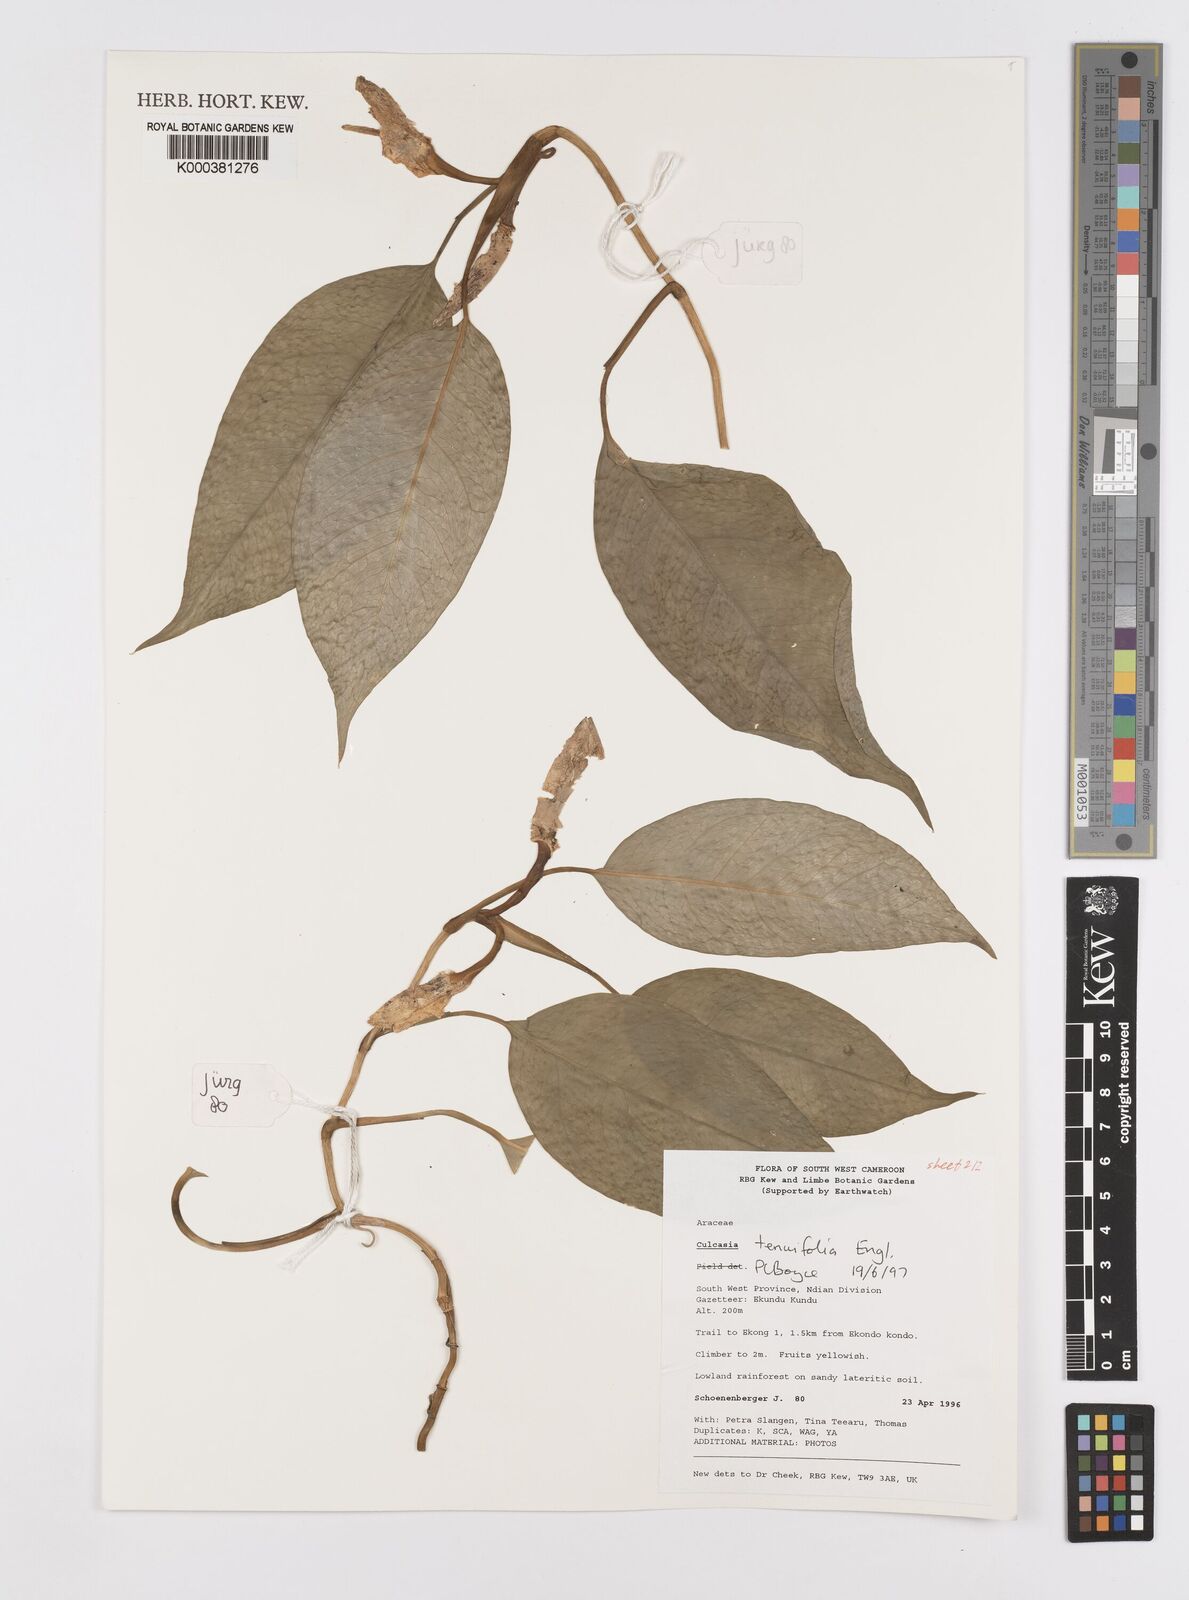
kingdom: Plantae
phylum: Tracheophyta
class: Liliopsida
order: Alismatales
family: Araceae
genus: Culcasia
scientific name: Culcasia tenuifolia
